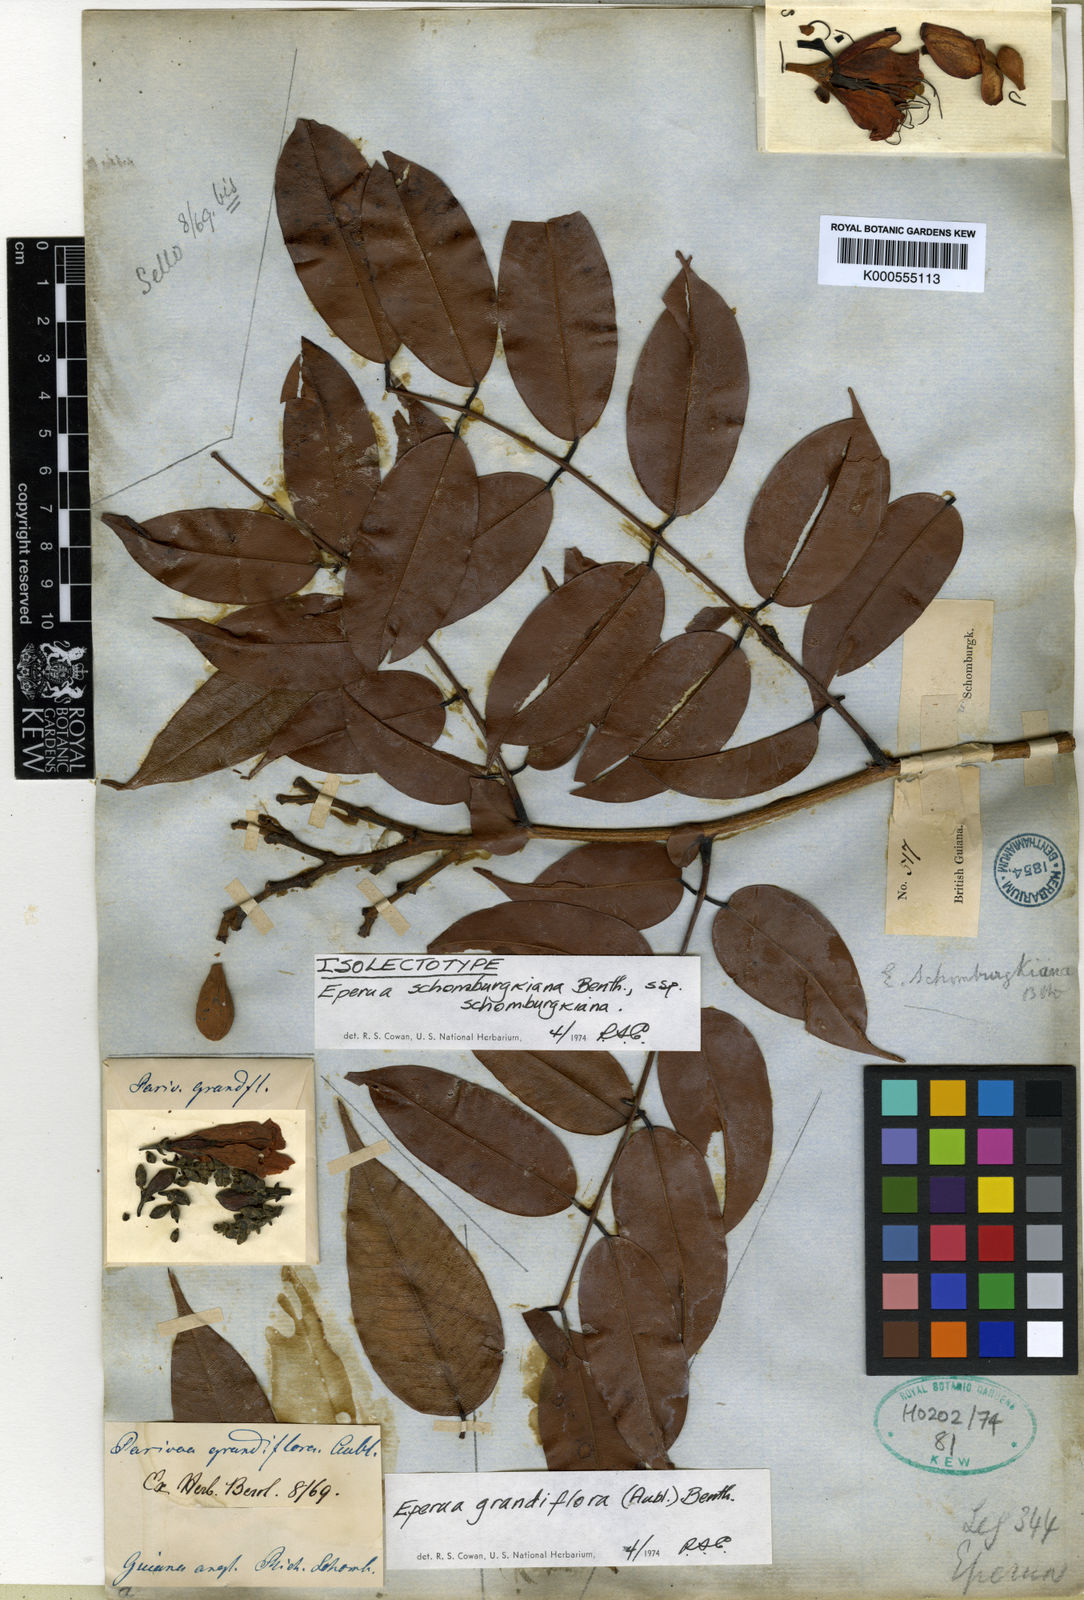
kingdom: Plantae
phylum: Tracheophyta
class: Magnoliopsida
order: Fabales
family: Fabaceae
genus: Eperua
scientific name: Eperua schomburgkiana
